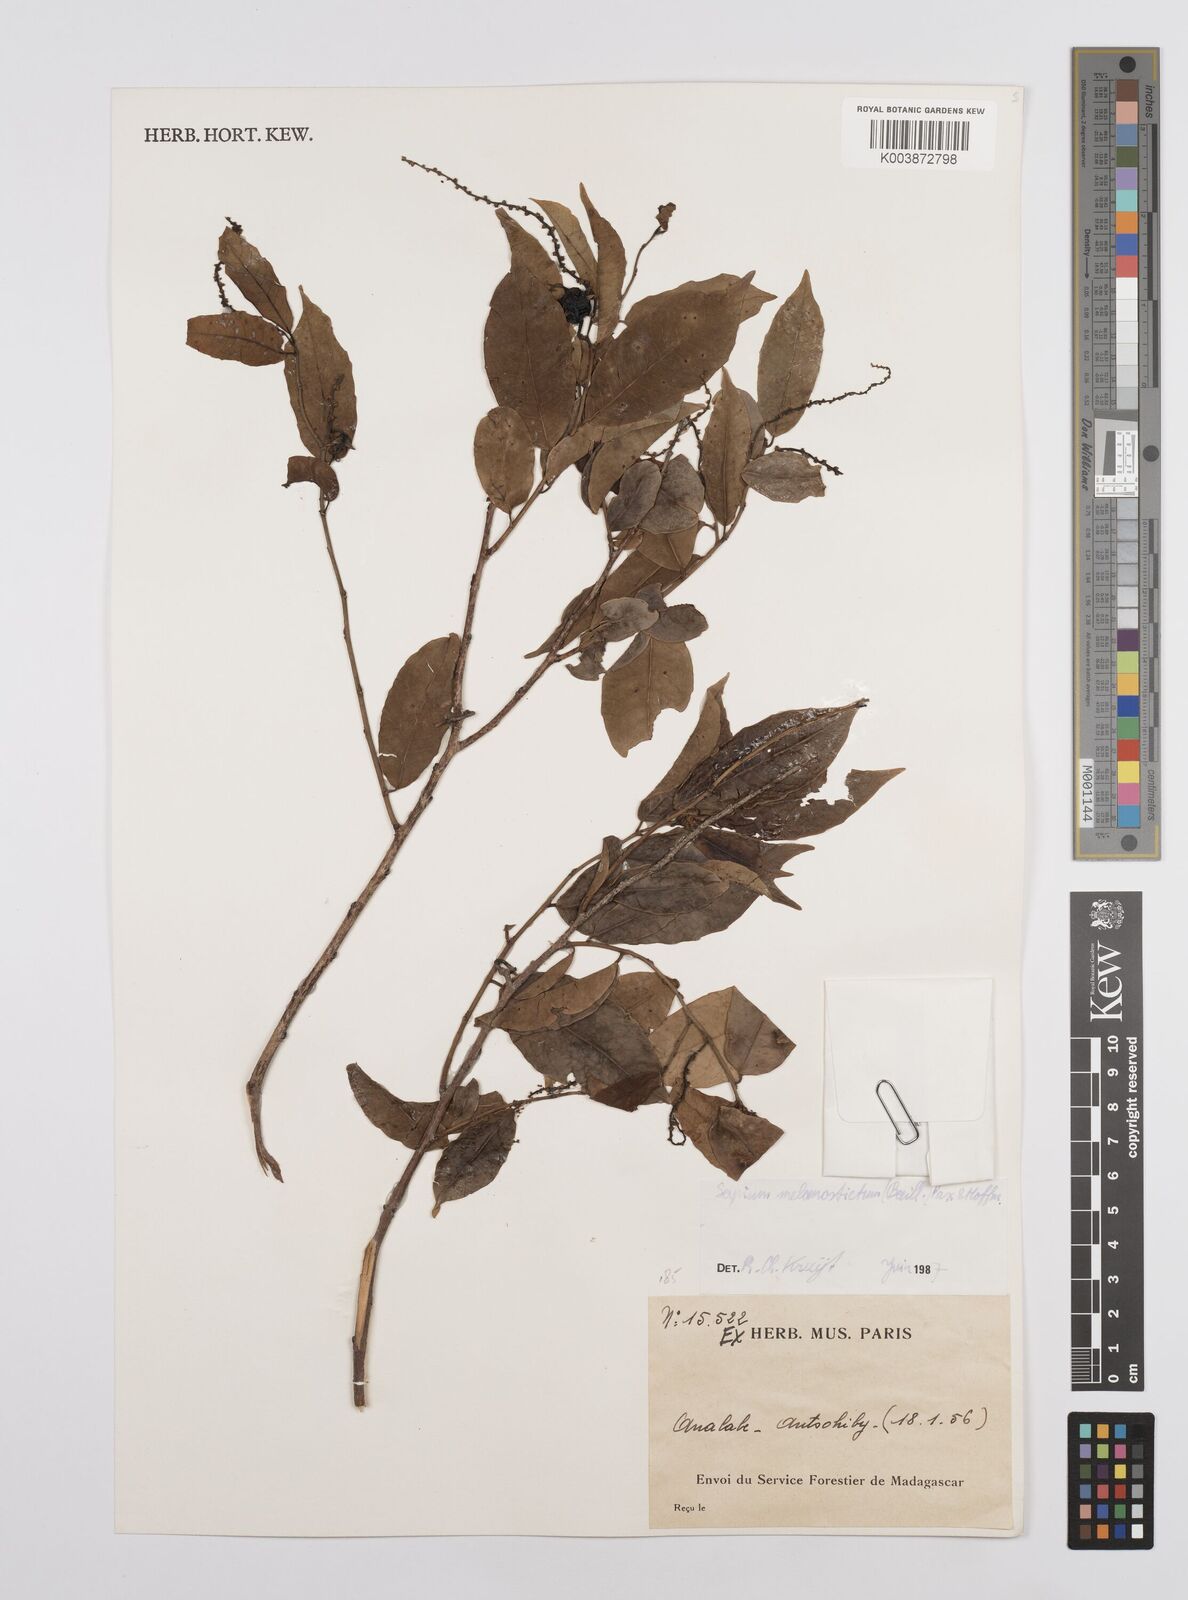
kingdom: Plantae
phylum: Tracheophyta
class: Magnoliopsida
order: Malpighiales
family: Euphorbiaceae
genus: Sclerocroton
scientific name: Sclerocroton melanostictus
